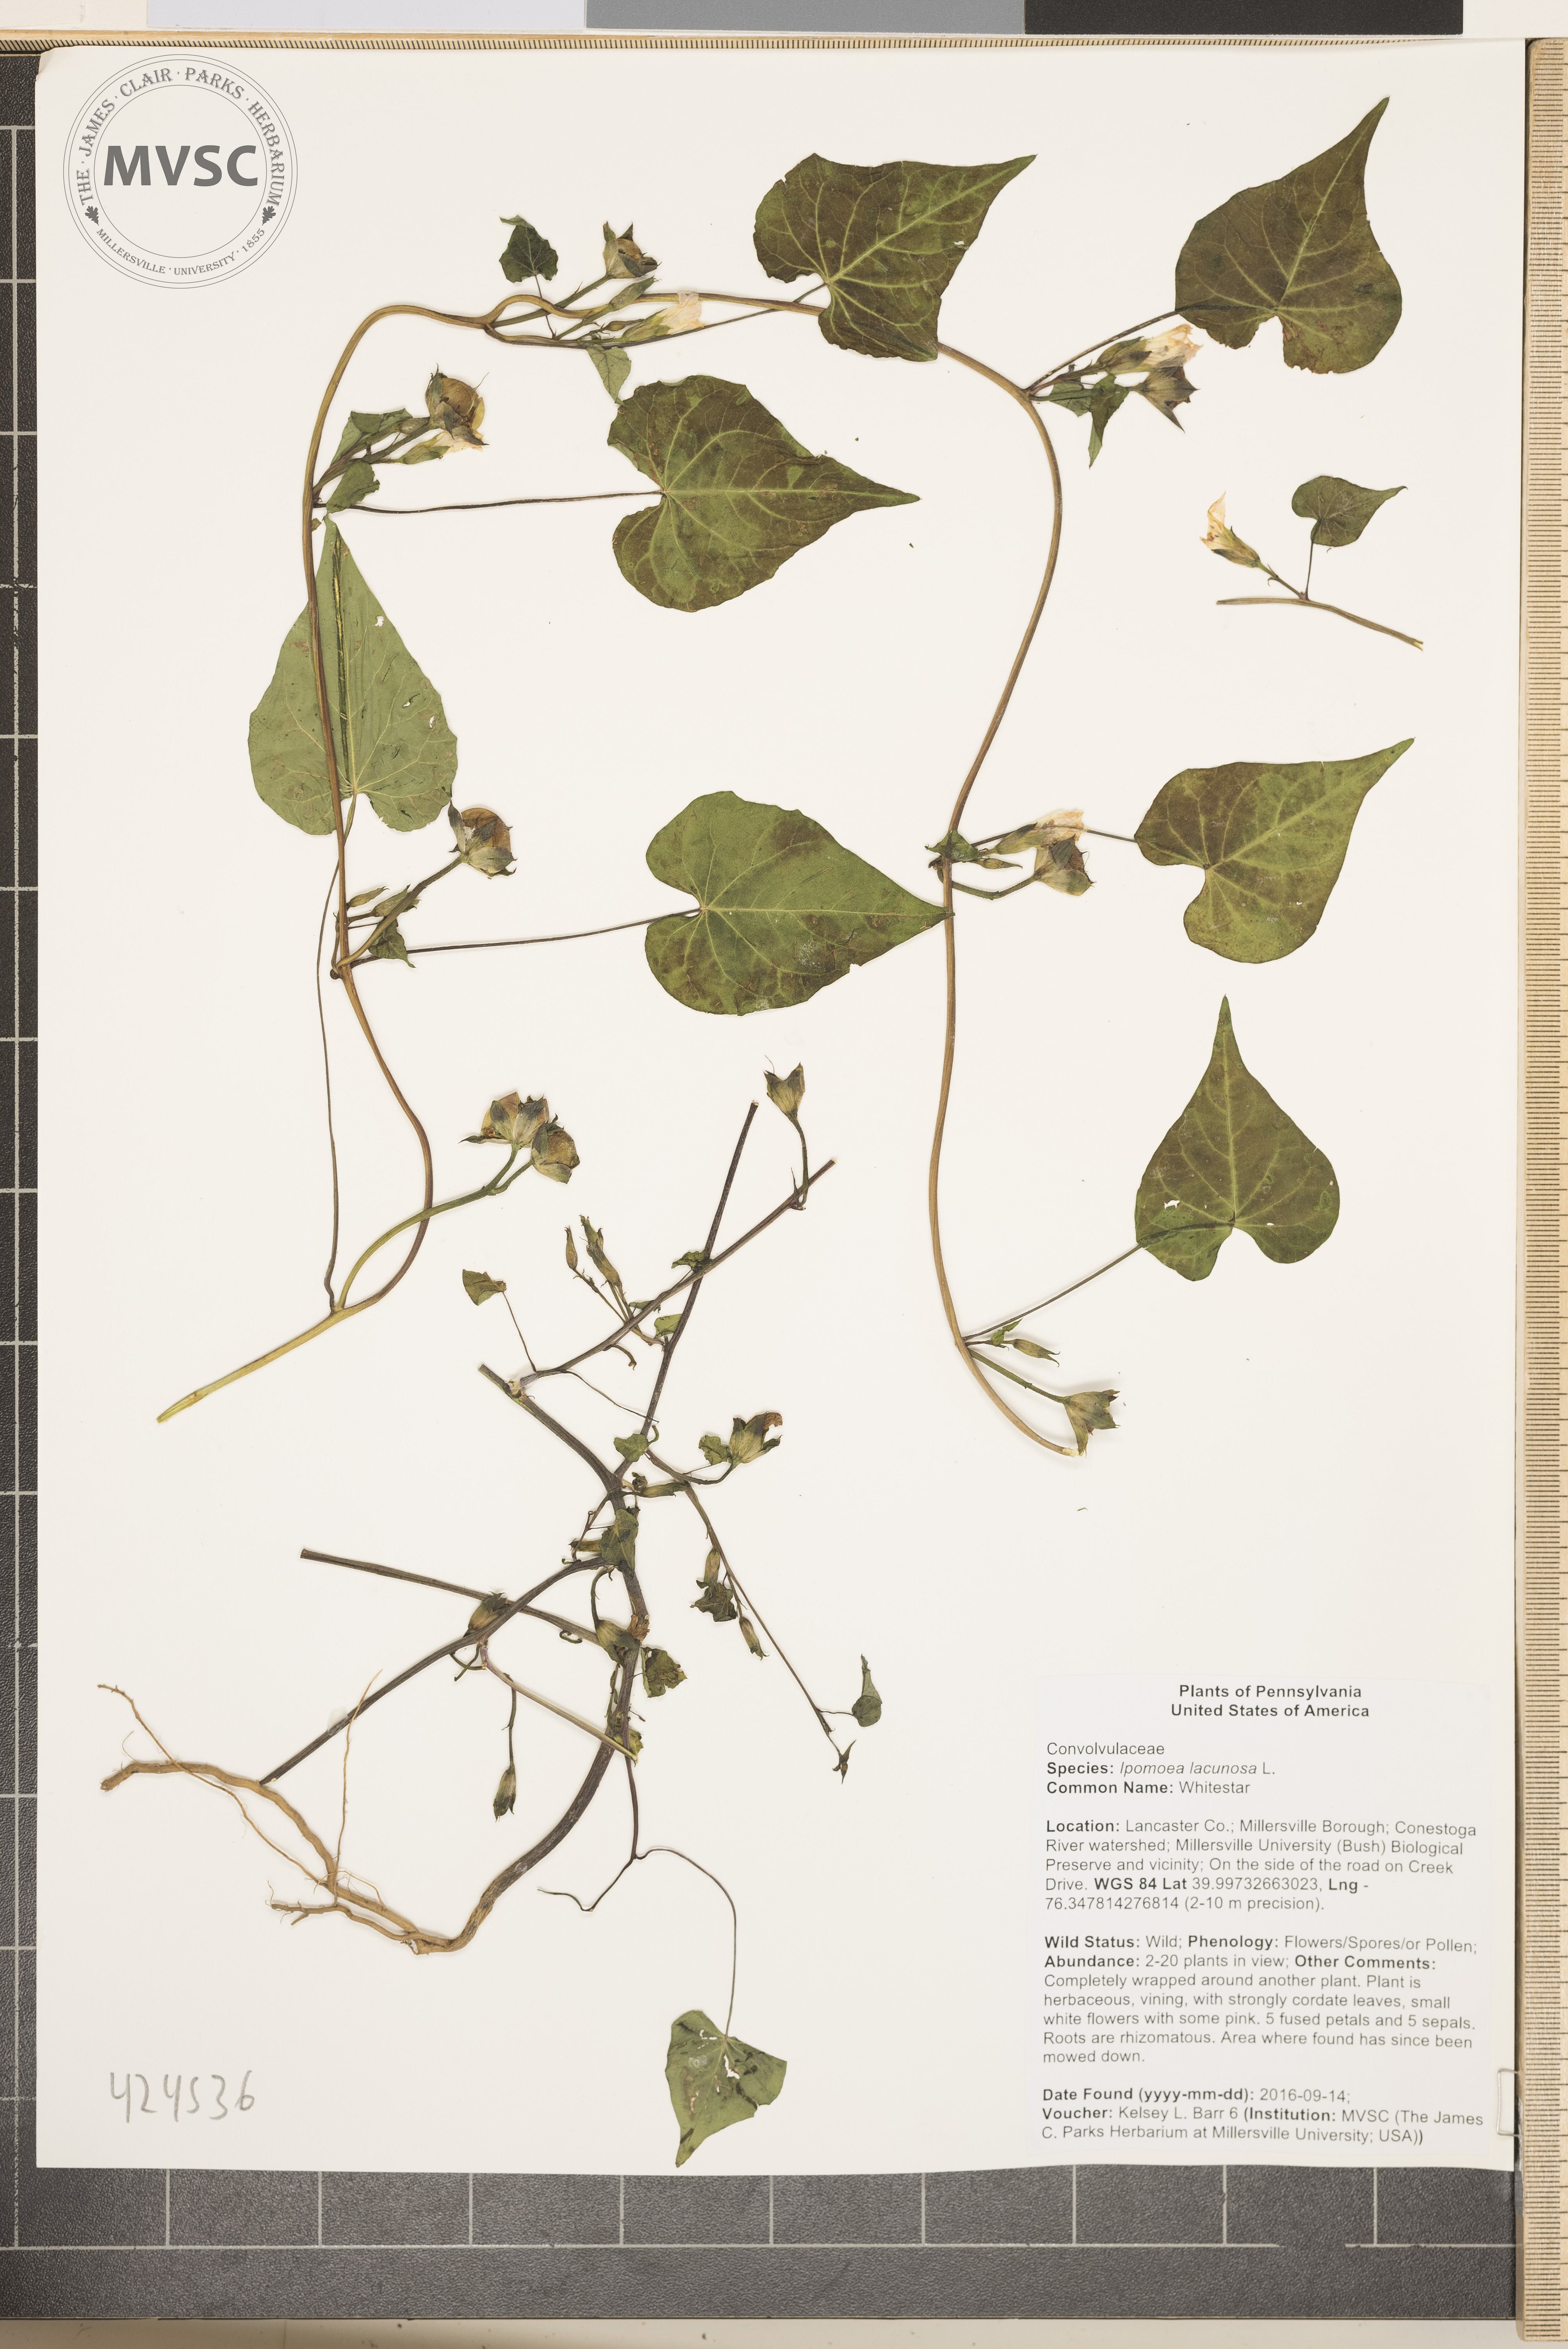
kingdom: Plantae
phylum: Tracheophyta
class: Magnoliopsida
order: Solanales
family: Convolvulaceae
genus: Ipomoea
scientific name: Ipomoea lacunosa
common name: Whitestar
